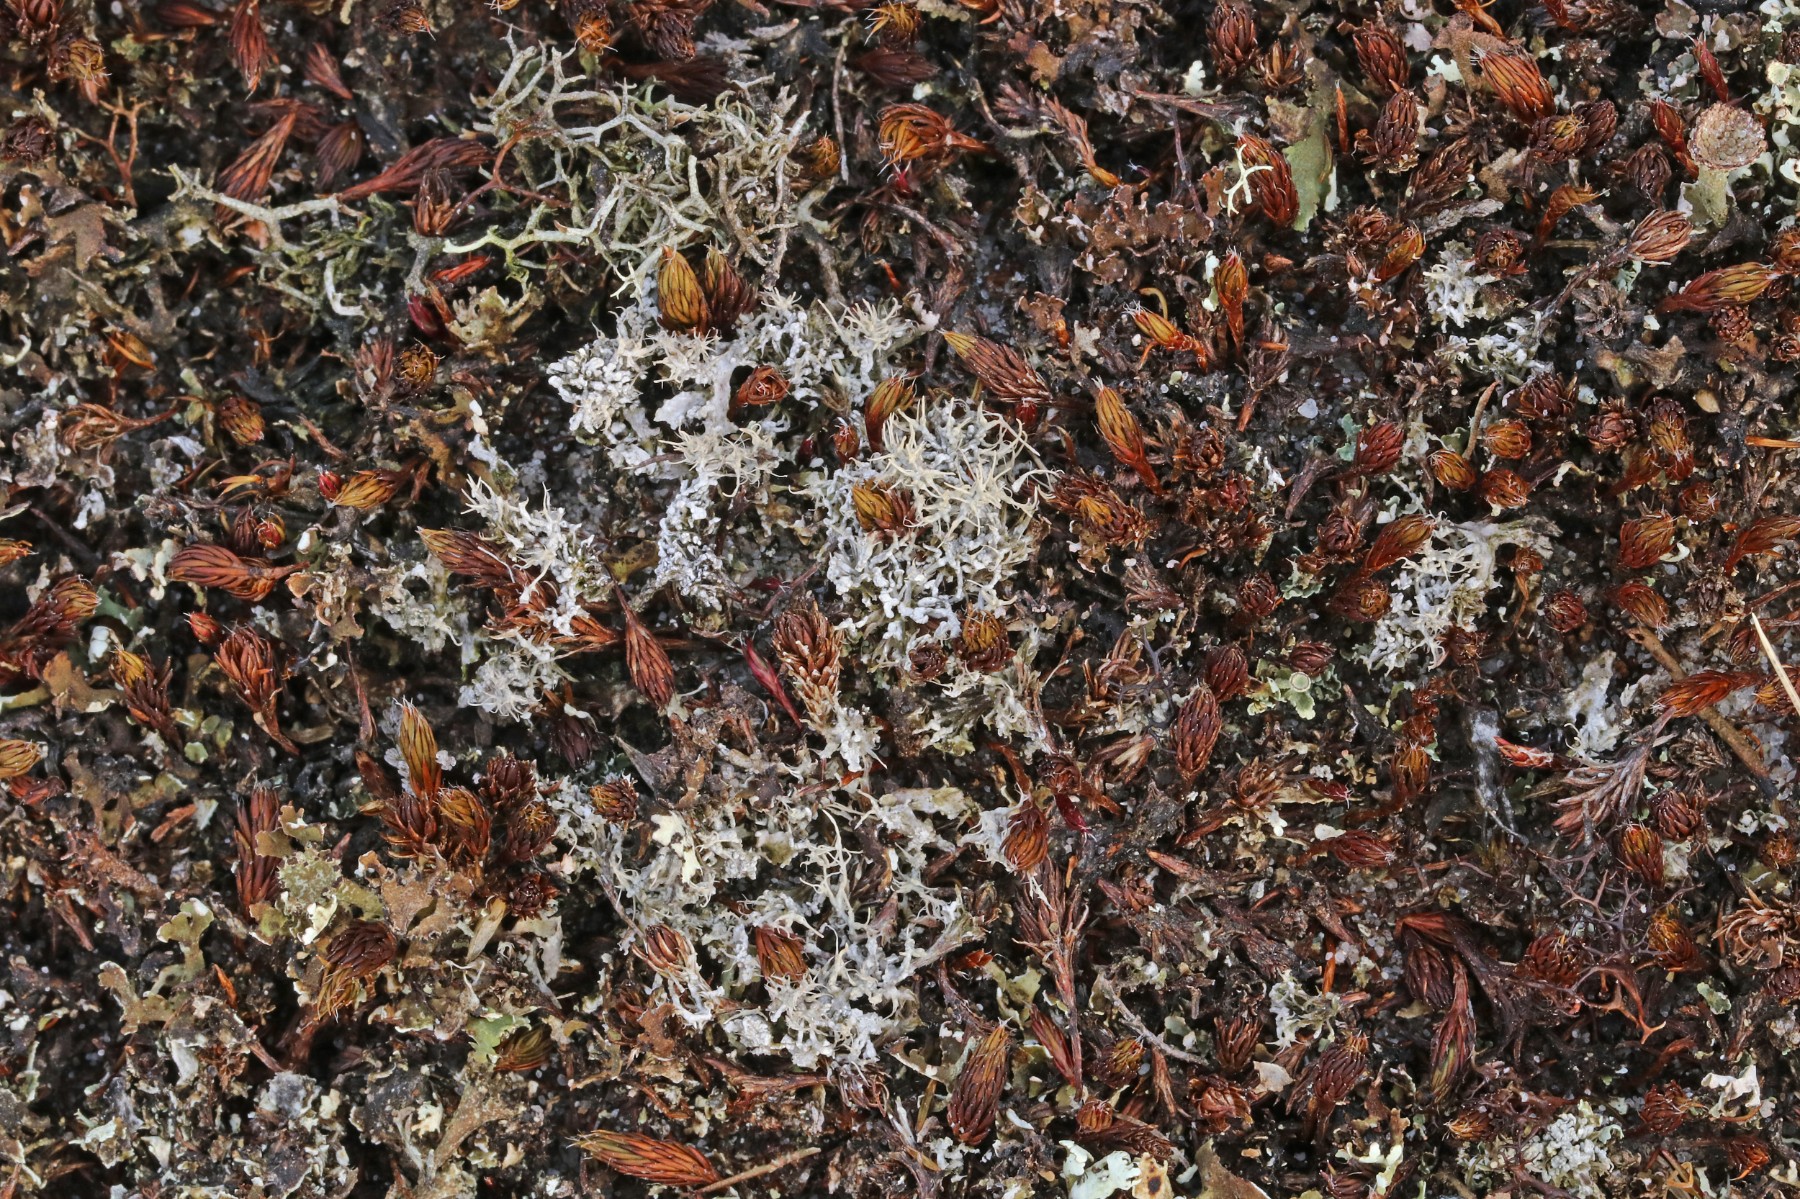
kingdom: Fungi
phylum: Ascomycota
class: Lecanoromycetes
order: Pertusariales
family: Ochrolechiaceae
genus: Ochrolechia
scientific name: Ochrolechia frigida
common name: fjeld-blegskivelav
